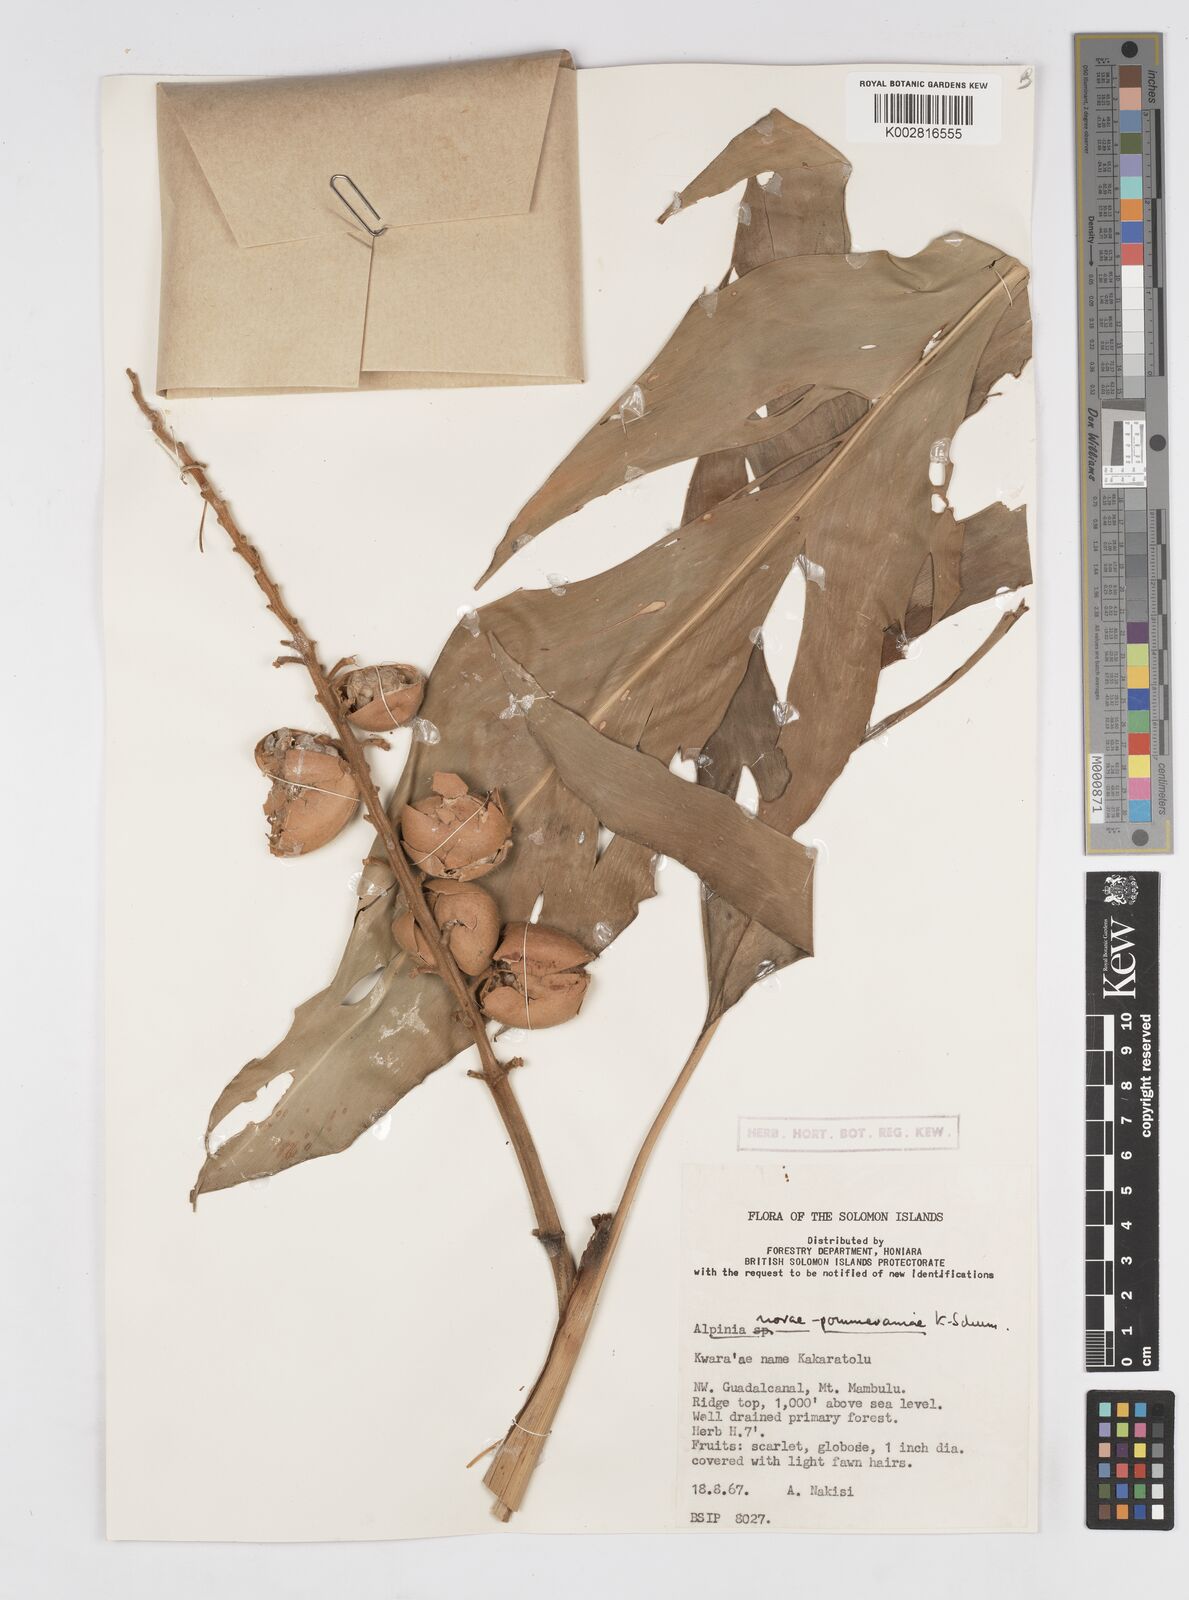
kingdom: Plantae
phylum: Tracheophyta
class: Liliopsida
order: Zingiberales
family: Zingiberaceae
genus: Alpinia
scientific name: Alpinia novae-pommeraniae
